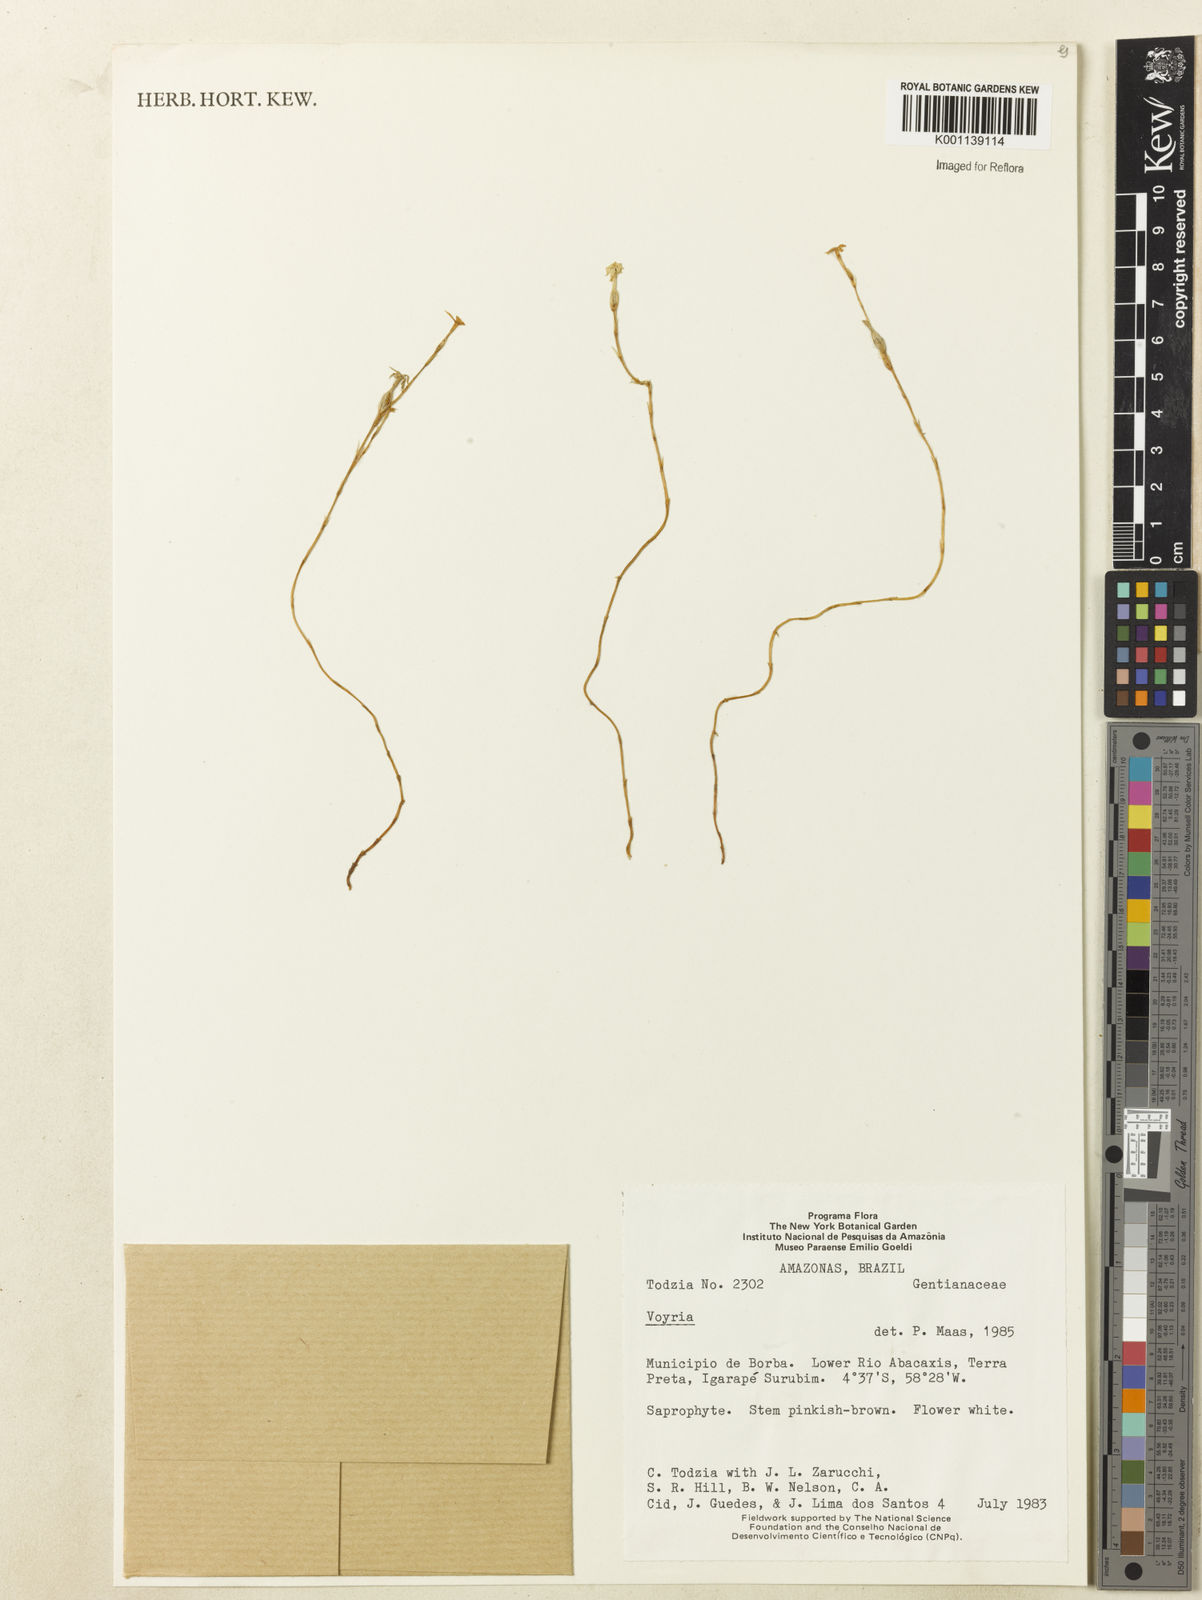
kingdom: Plantae
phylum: Tracheophyta
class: Magnoliopsida
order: Gentianales
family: Gentianaceae
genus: Voyria
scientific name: Voyria
